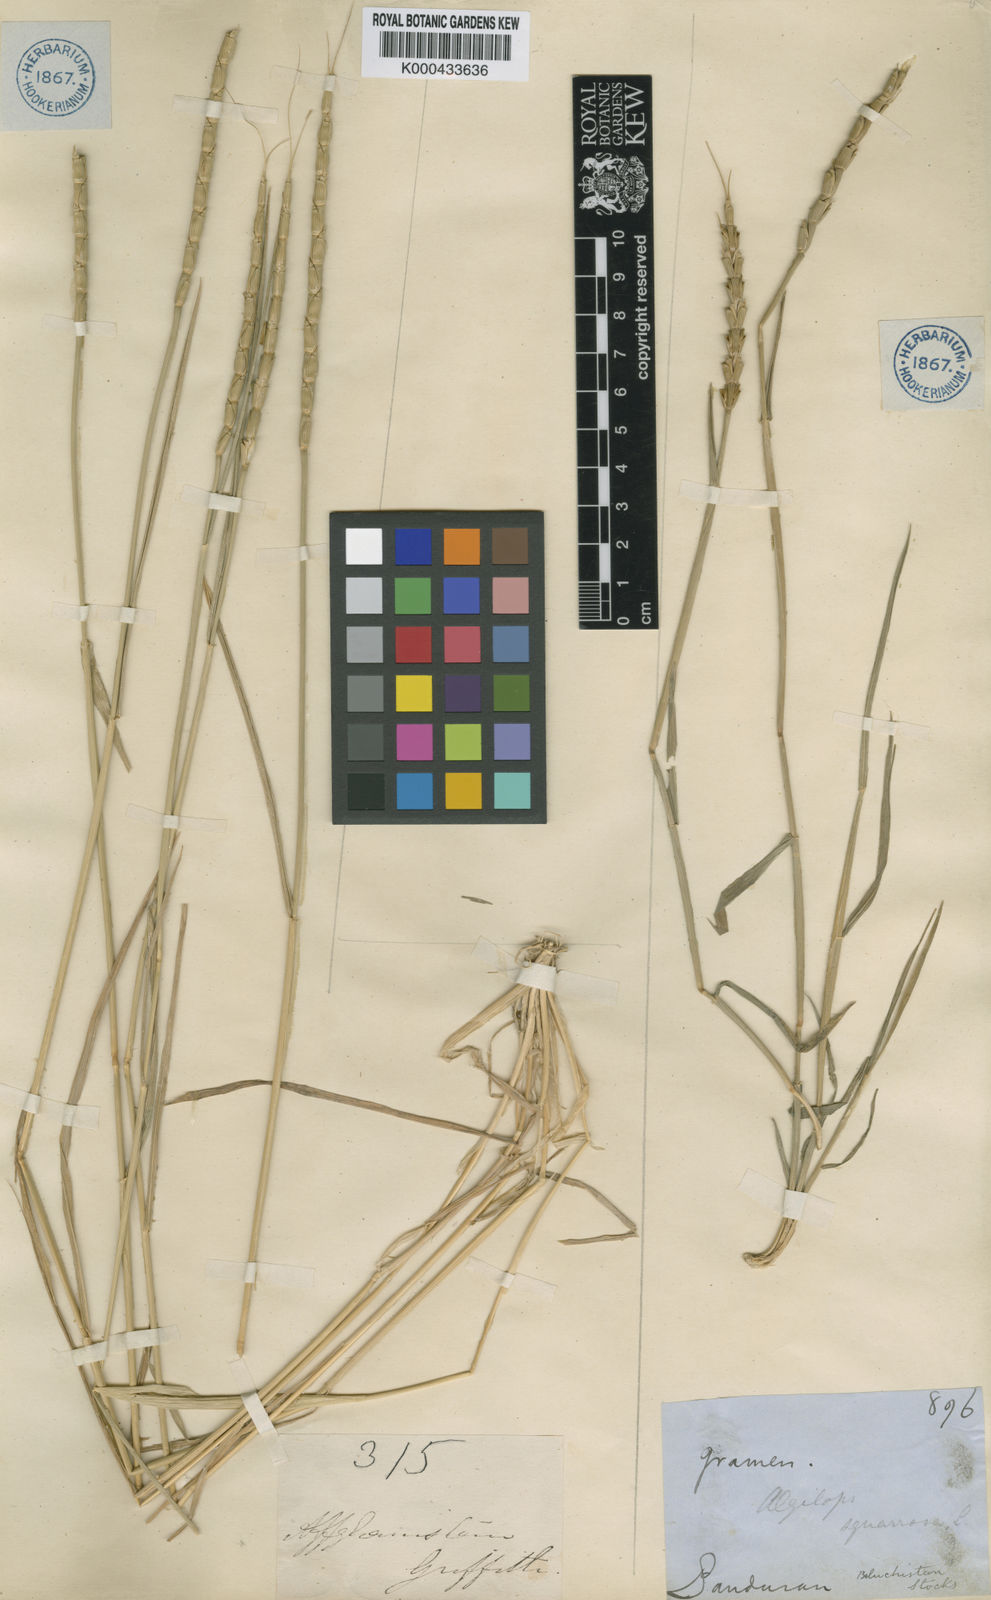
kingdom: Plantae
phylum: Tracheophyta
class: Liliopsida
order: Poales
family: Poaceae
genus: Aegilops
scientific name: Aegilops tauschii
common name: Rough-spike hard grass
